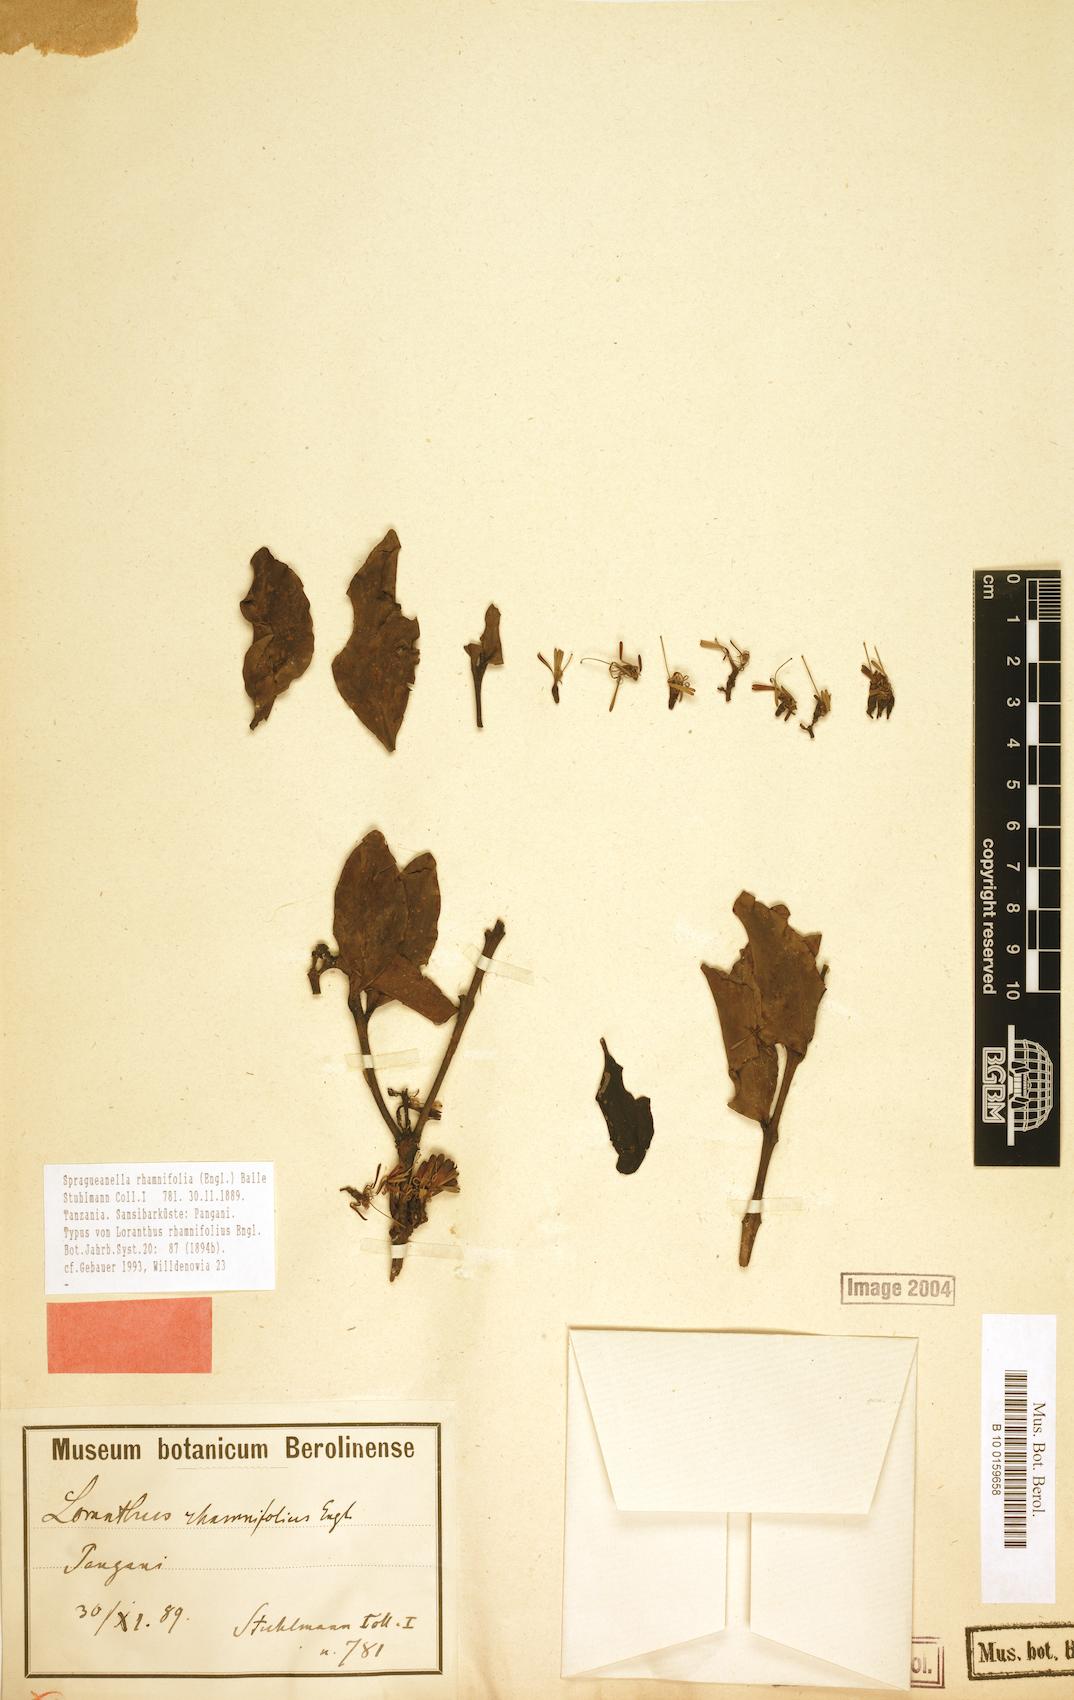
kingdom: Plantae
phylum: Tracheophyta
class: Magnoliopsida
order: Santalales
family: Loranthaceae
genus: Spragueanella
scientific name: Spragueanella rhamnifolia
